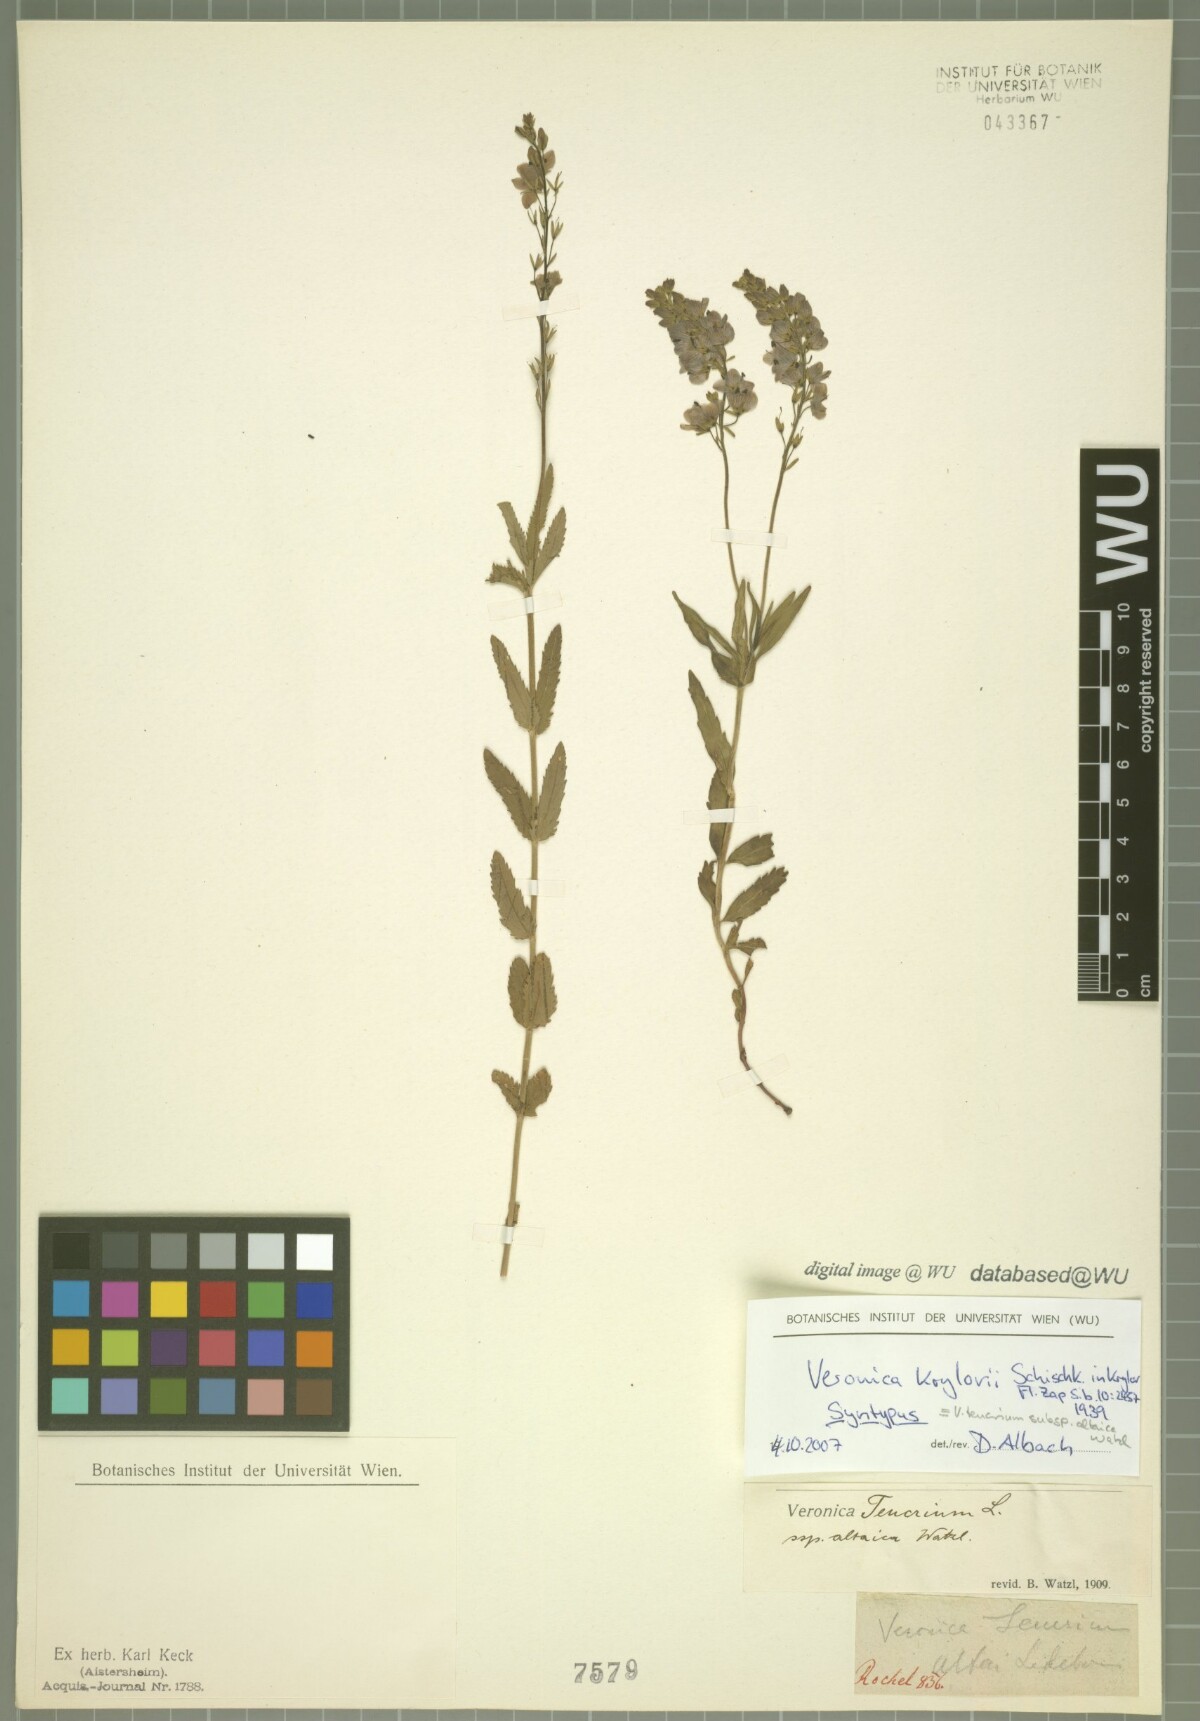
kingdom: Plantae
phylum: Tracheophyta
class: Magnoliopsida
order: Lamiales
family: Plantaginaceae
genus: Veronica
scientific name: Veronica krylovii
